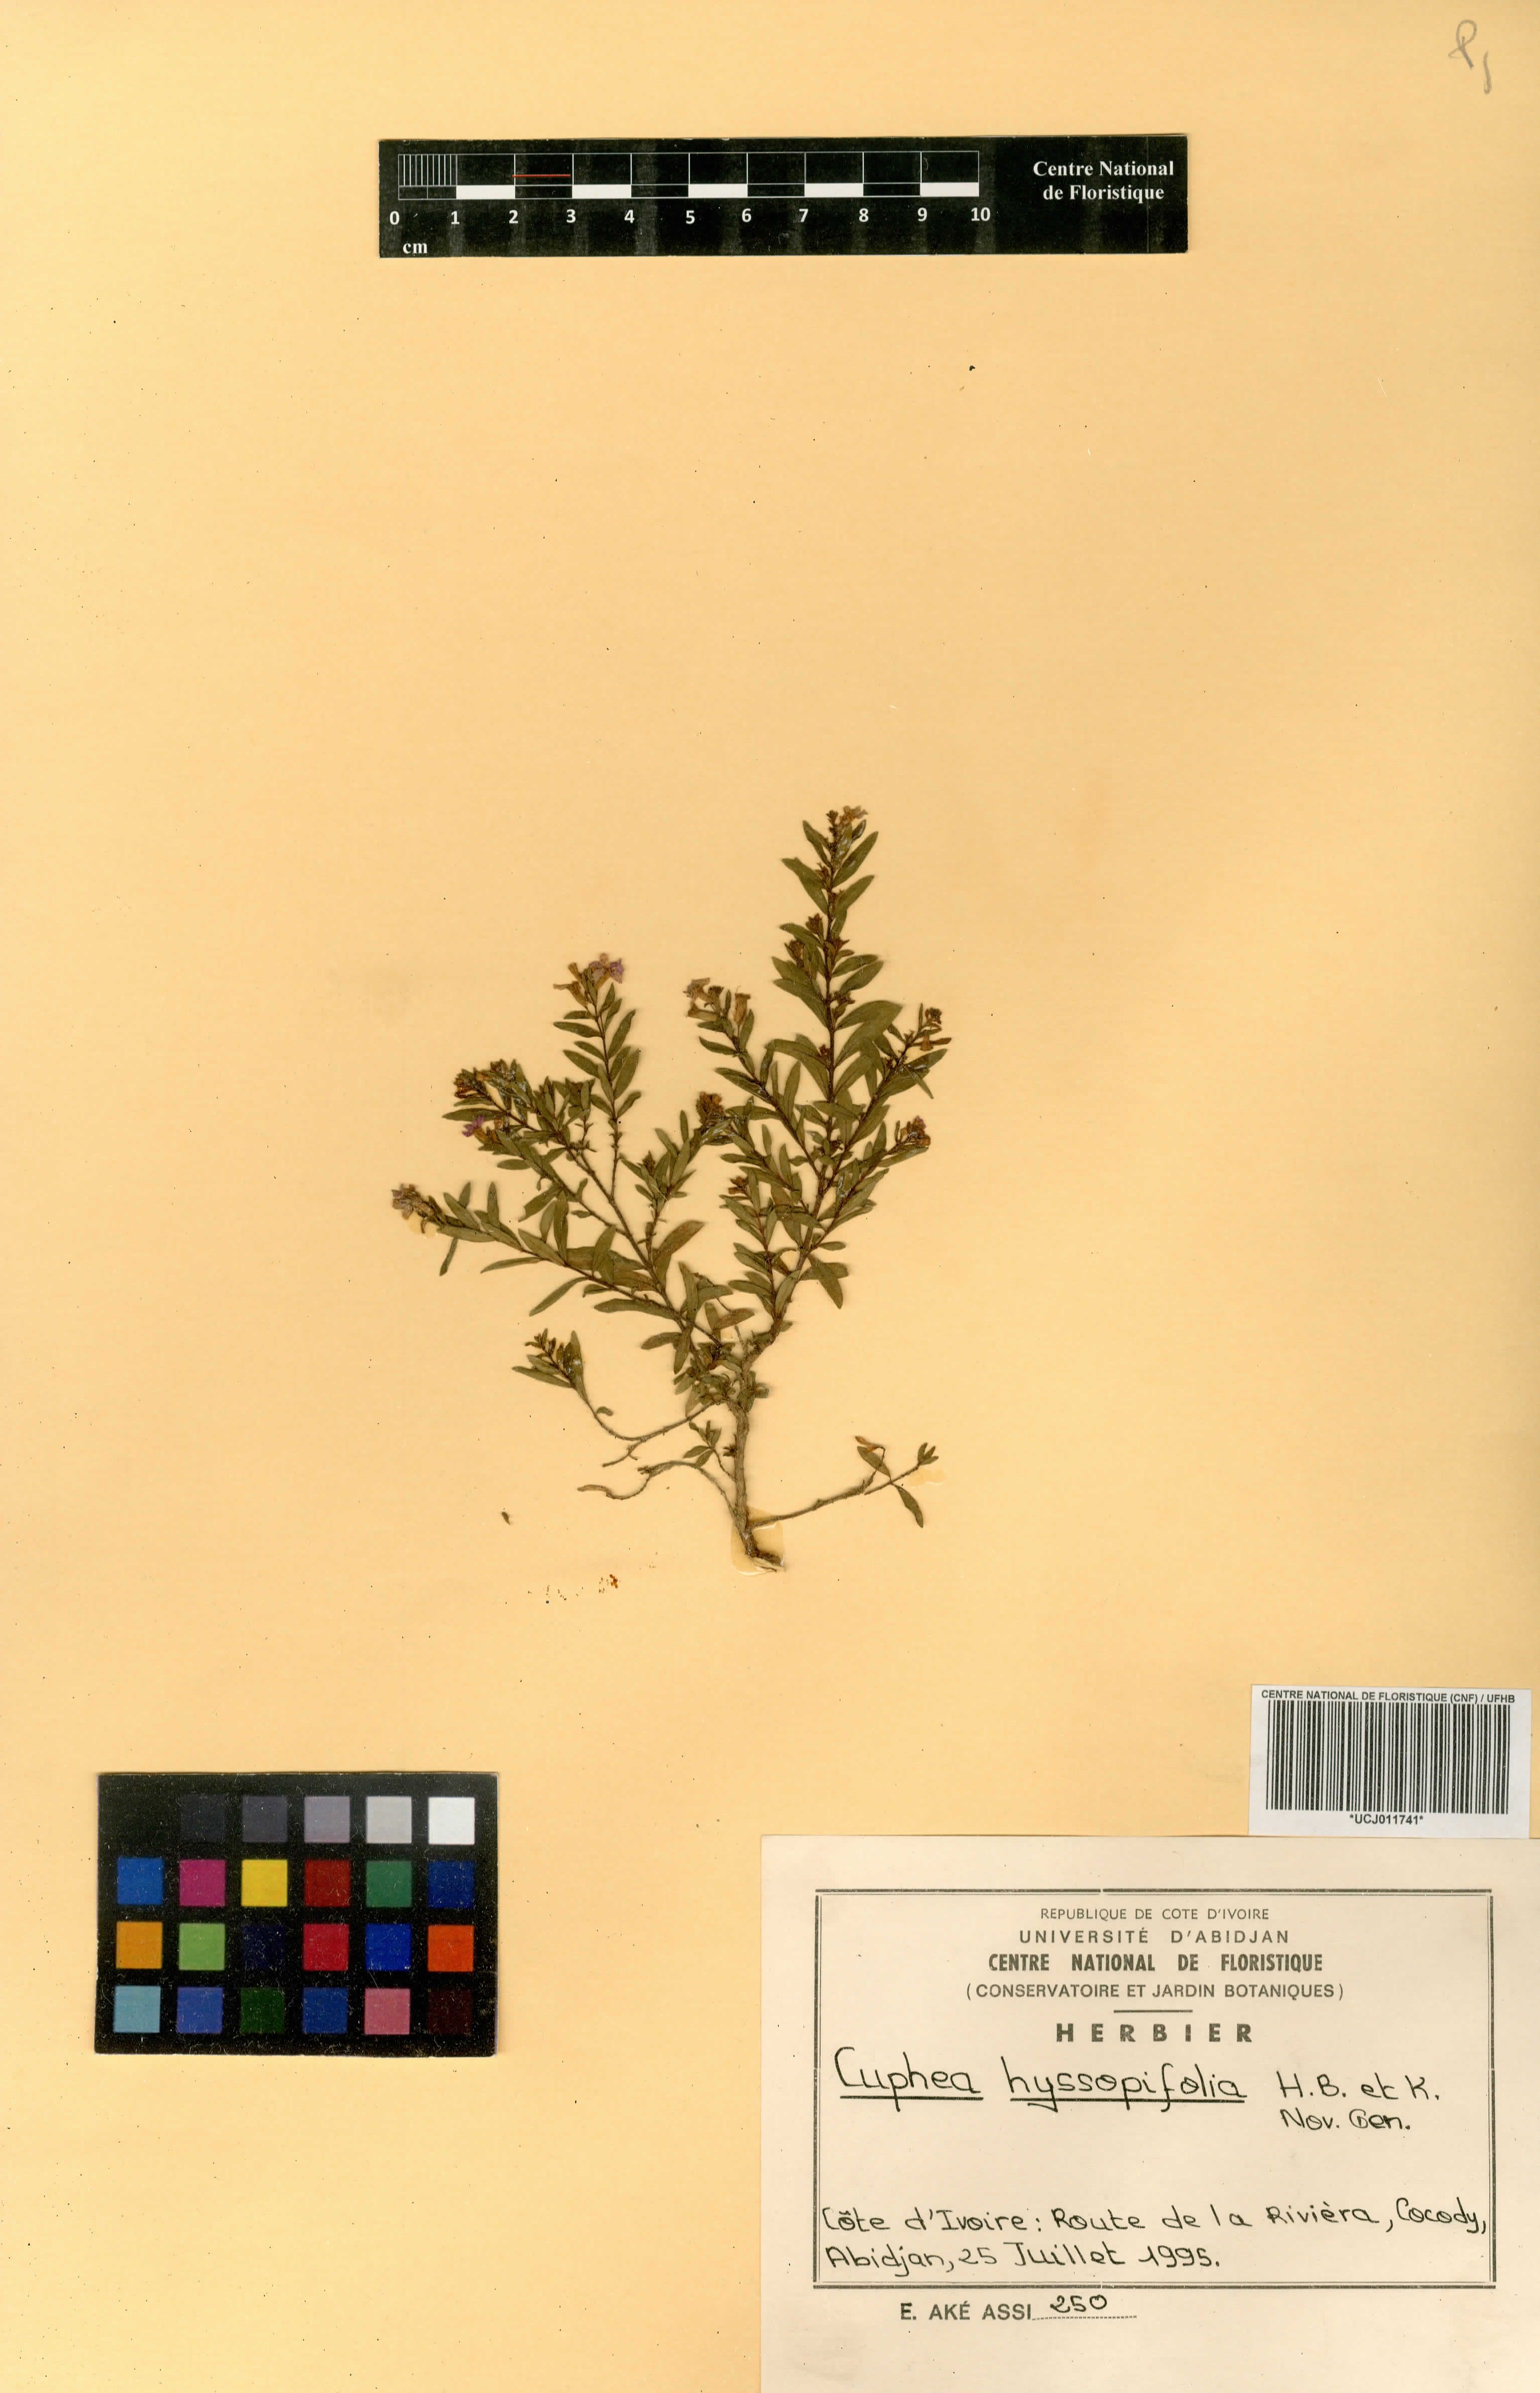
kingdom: Plantae
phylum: Tracheophyta
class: Magnoliopsida
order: Myrtales
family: Lythraceae
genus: Cuphea
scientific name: Cuphea hyssopifolia
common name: False heather
